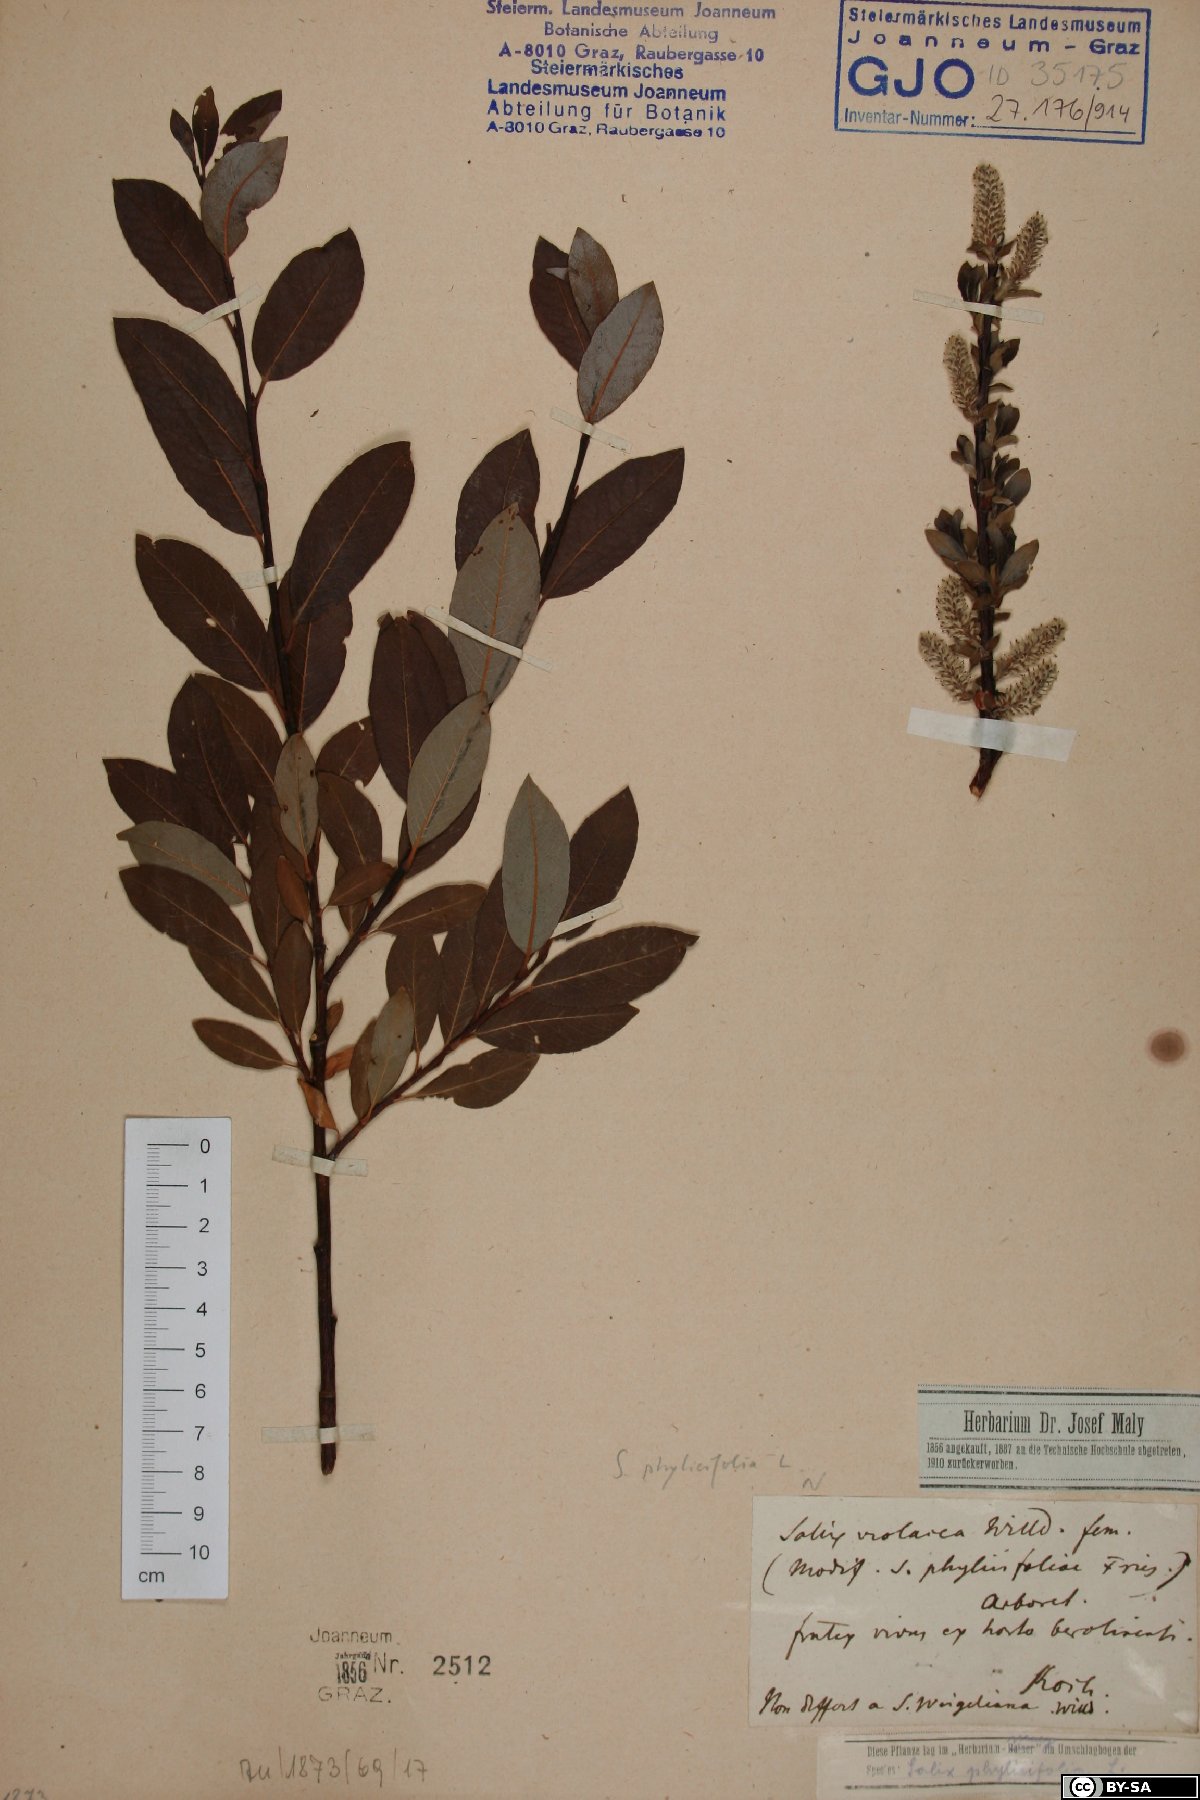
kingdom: Plantae
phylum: Tracheophyta
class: Magnoliopsida
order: Malpighiales
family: Salicaceae
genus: Salix
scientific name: Salix phylicifolia
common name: Tea-leaved willow
